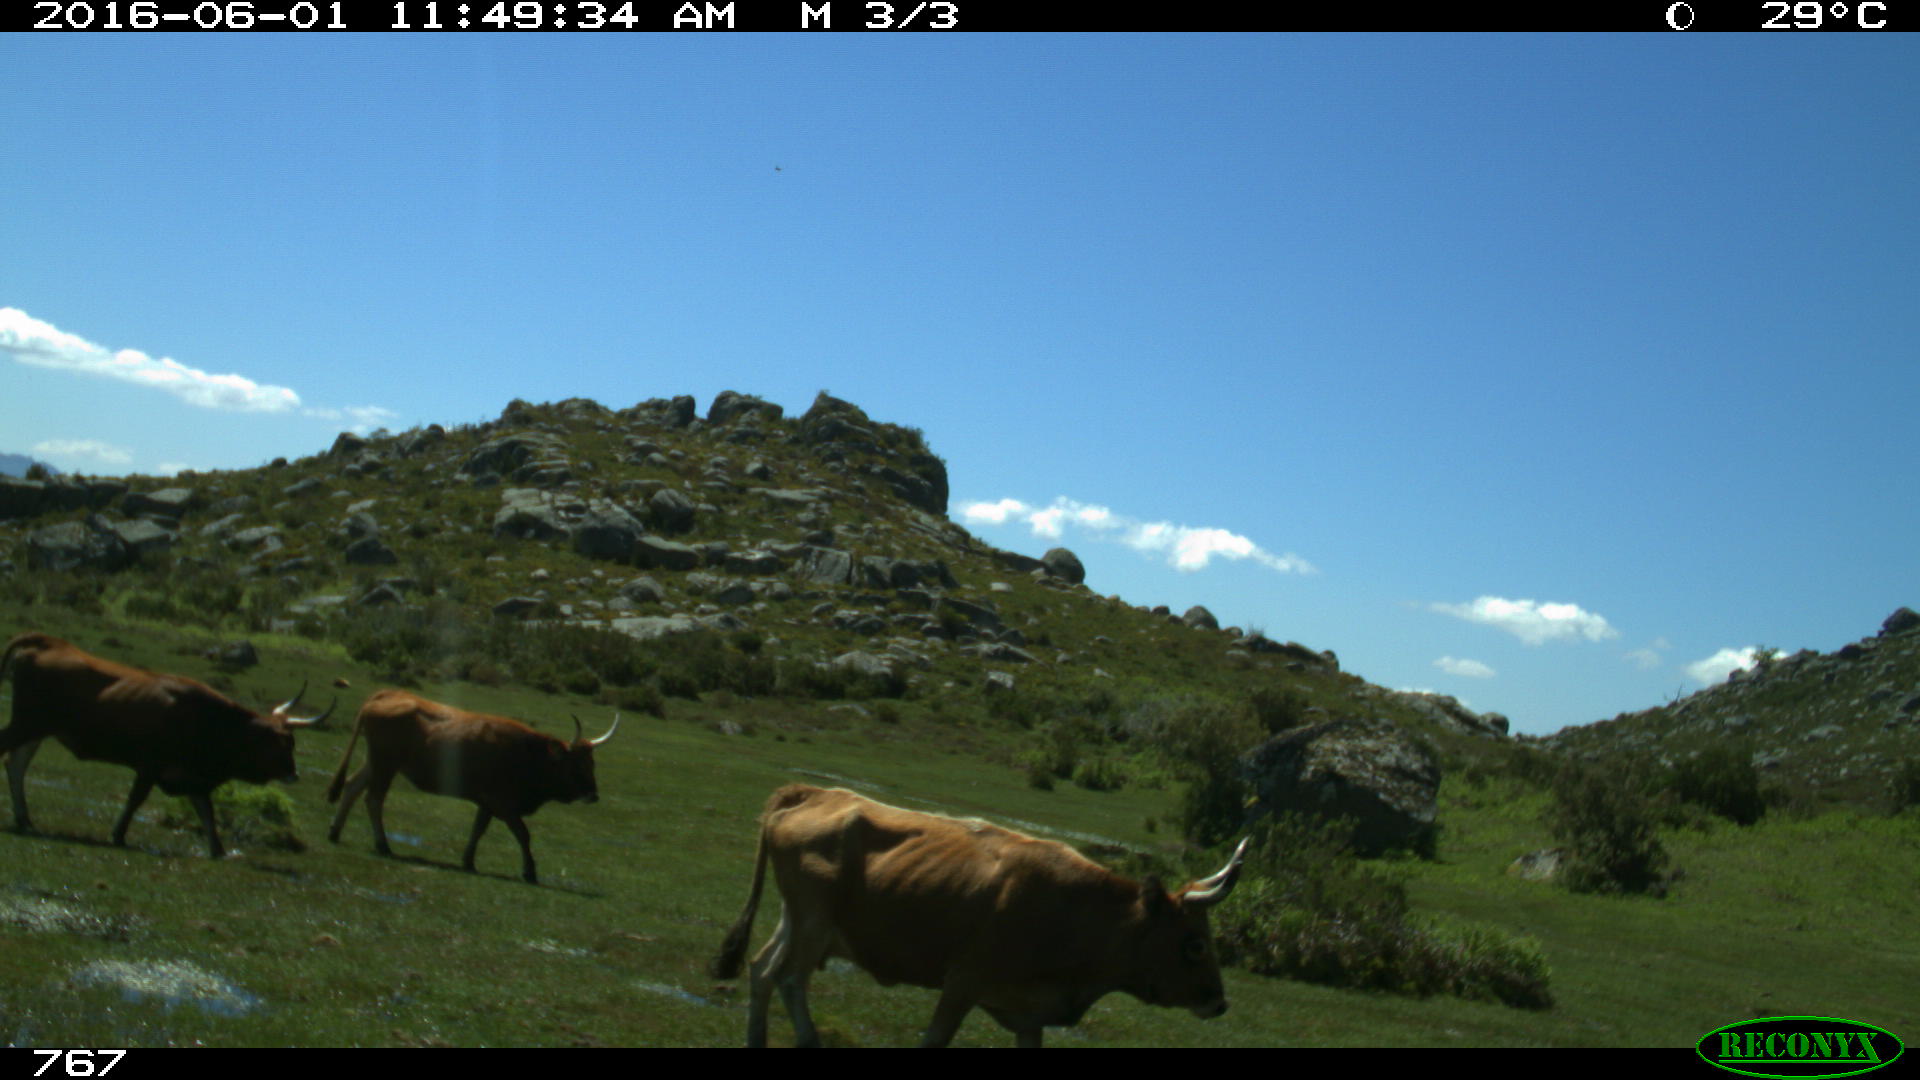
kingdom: Animalia
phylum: Chordata
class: Mammalia
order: Artiodactyla
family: Bovidae
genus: Bos
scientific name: Bos taurus
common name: Domesticated cattle
